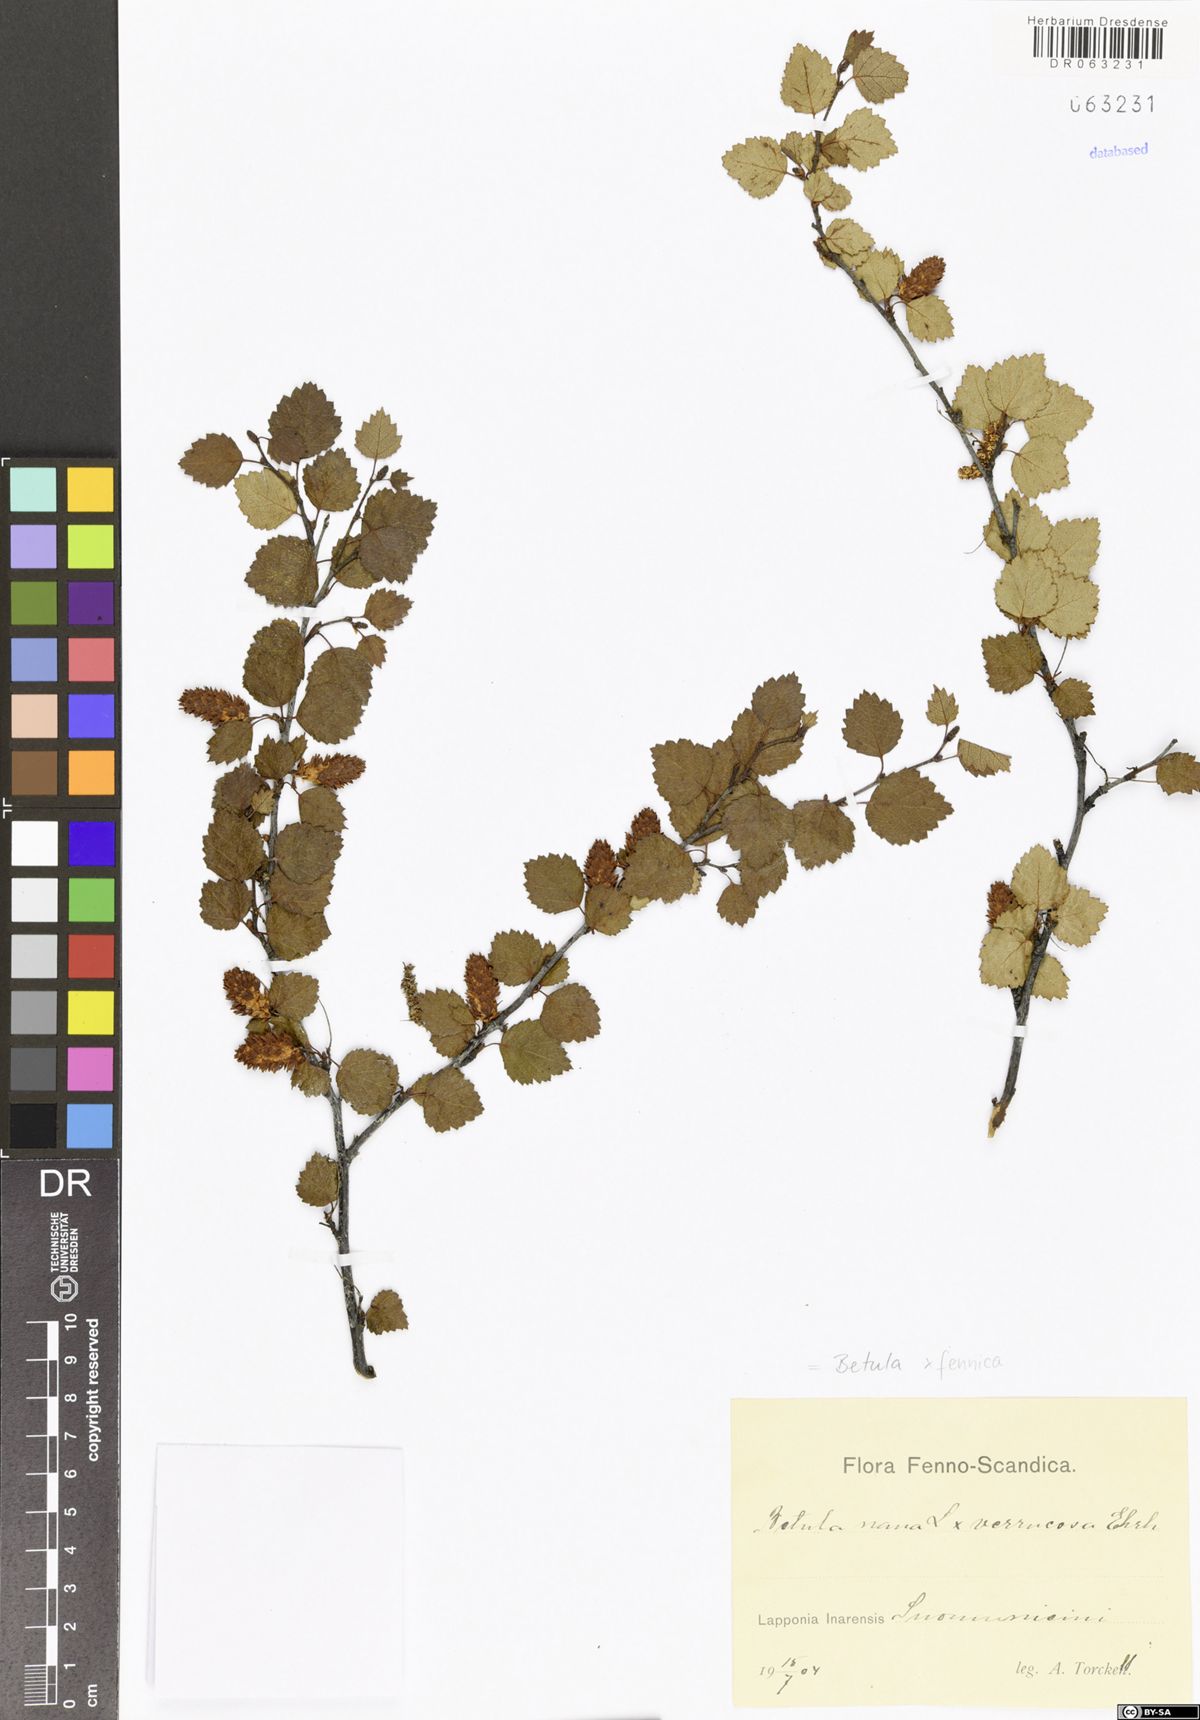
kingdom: Plantae
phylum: Tracheophyta
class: Magnoliopsida
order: Fagales
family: Betulaceae
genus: Betula
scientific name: Betula bottnica
